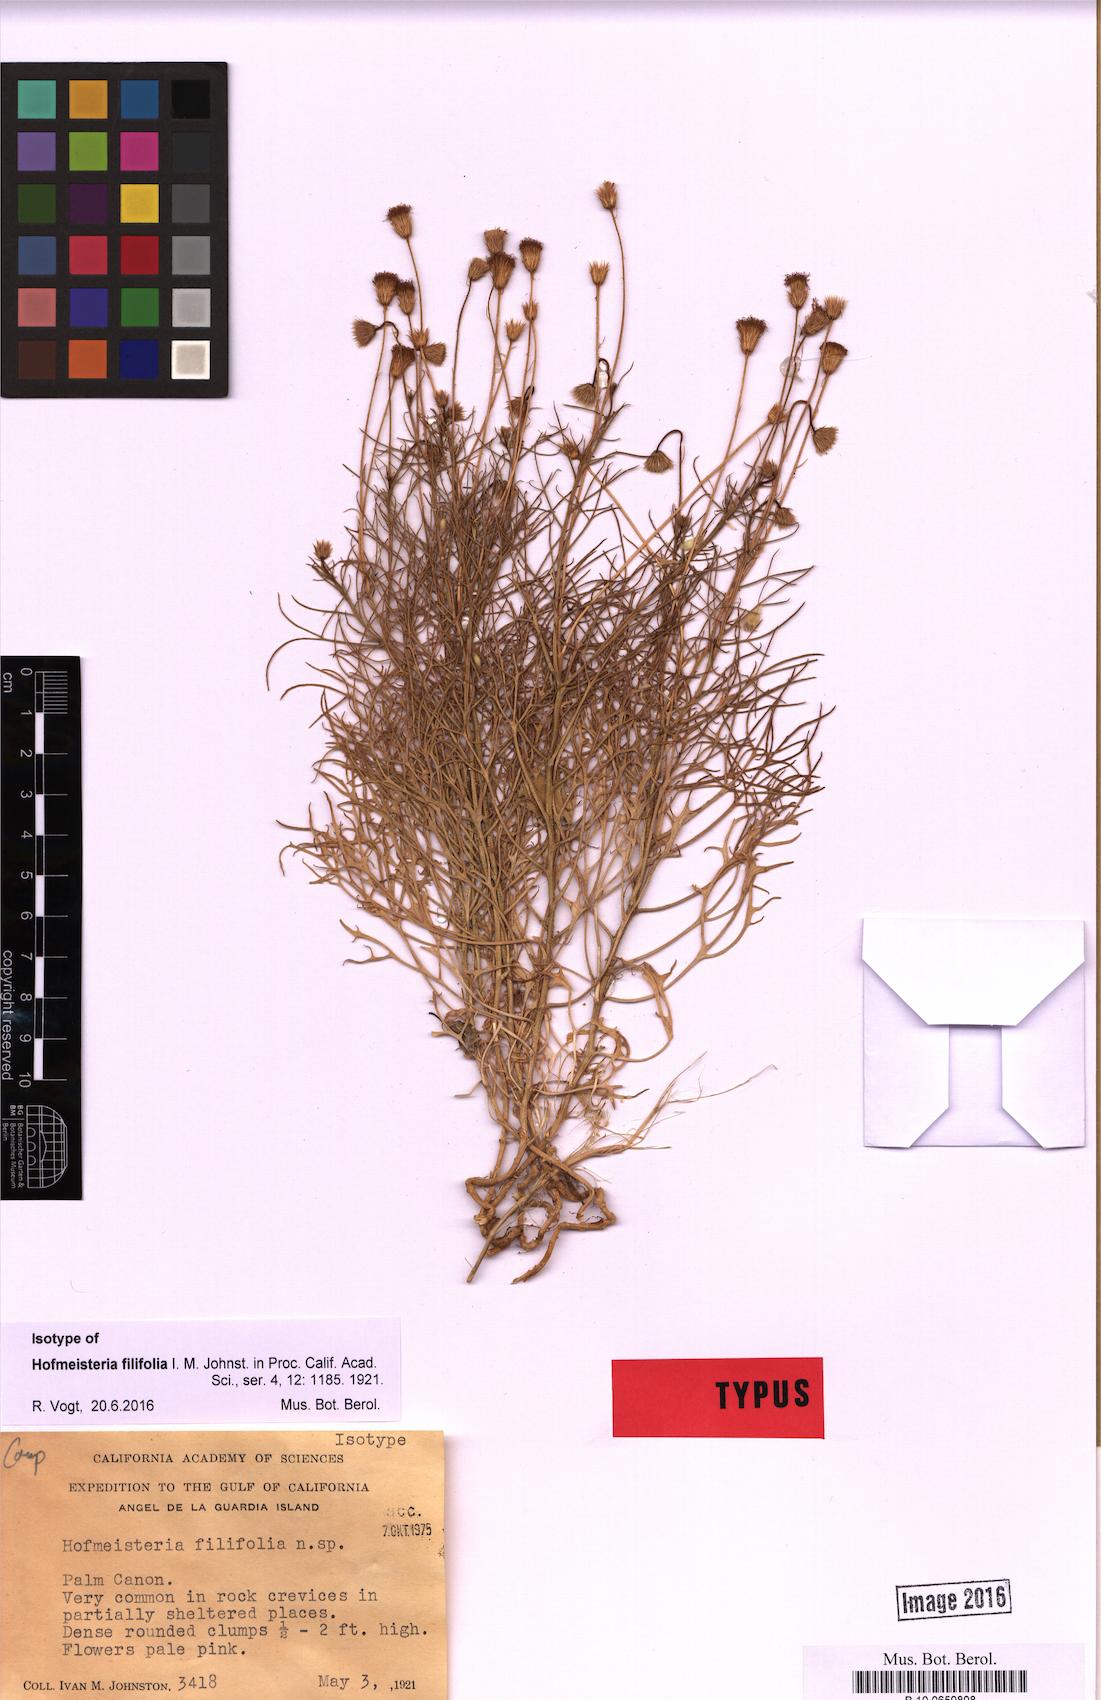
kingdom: Plantae
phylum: Tracheophyta
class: Magnoliopsida
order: Asterales
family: Asteraceae
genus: Hofmeisteria
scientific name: Hofmeisteria
